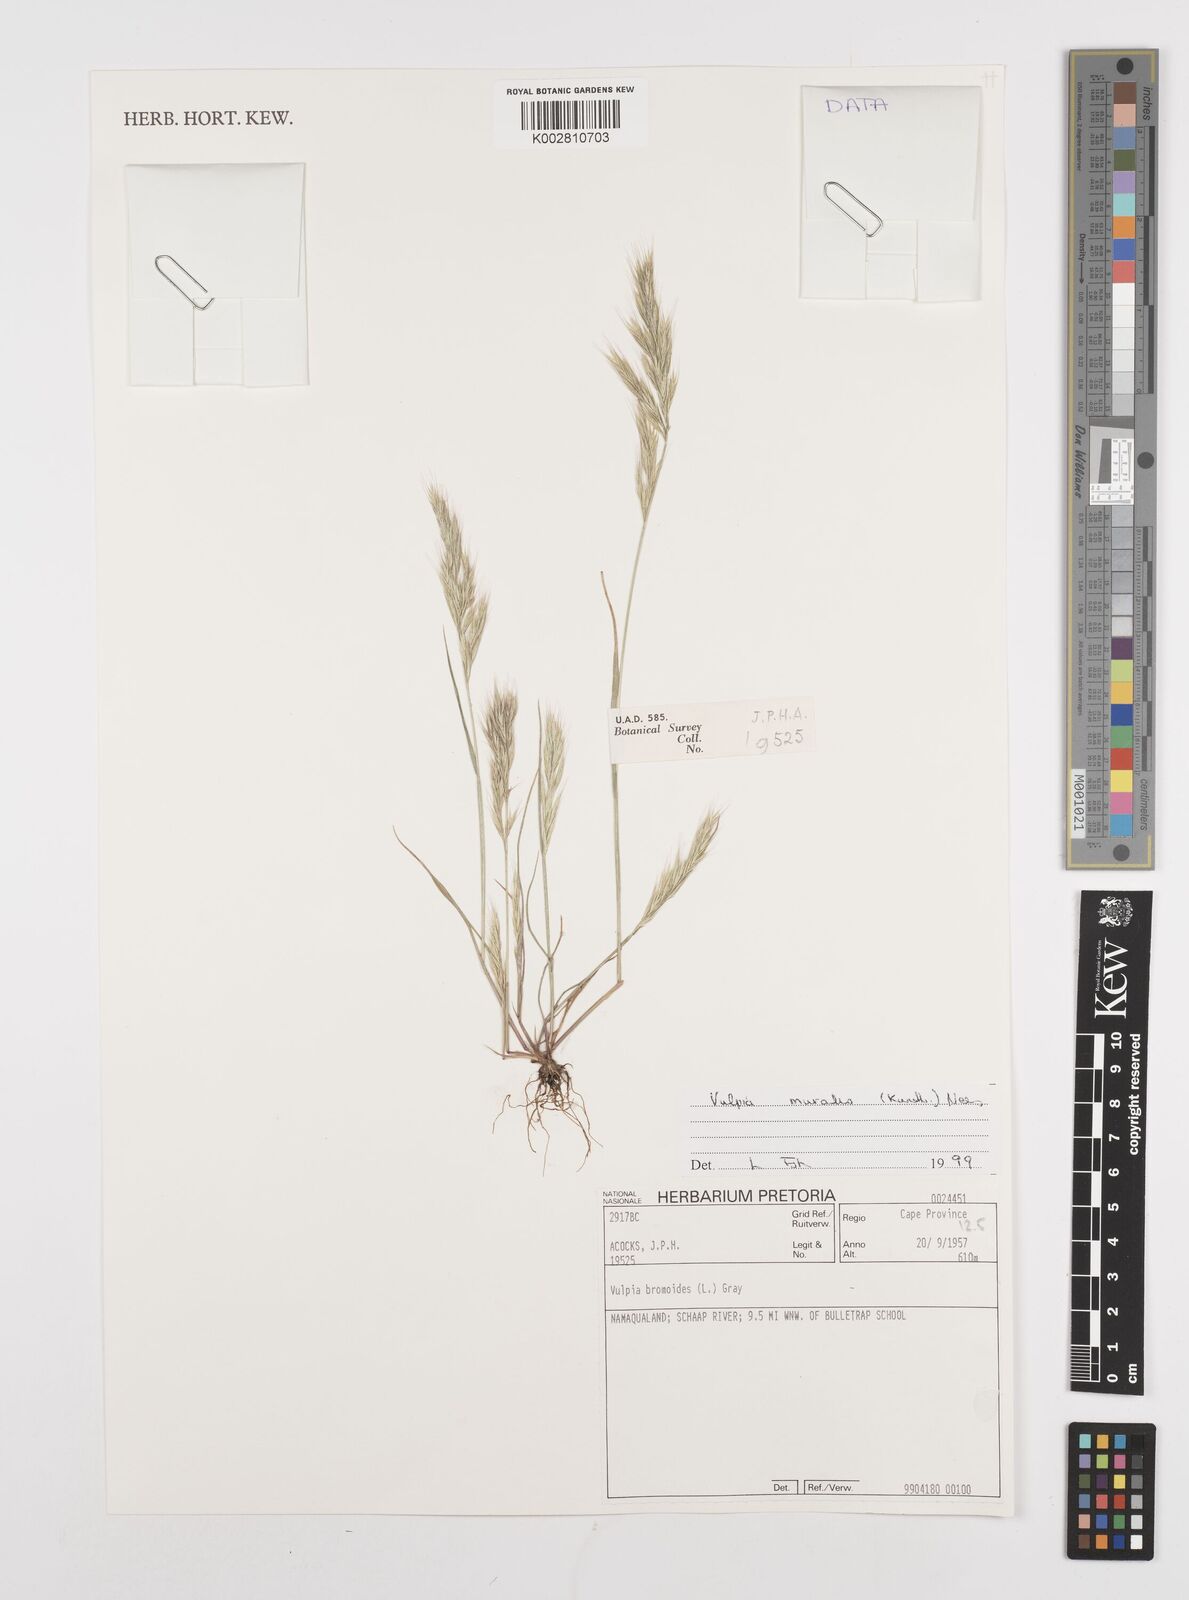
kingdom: Plantae
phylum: Tracheophyta
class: Liliopsida
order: Poales
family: Poaceae
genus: Festuca
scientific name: Festuca muralis
